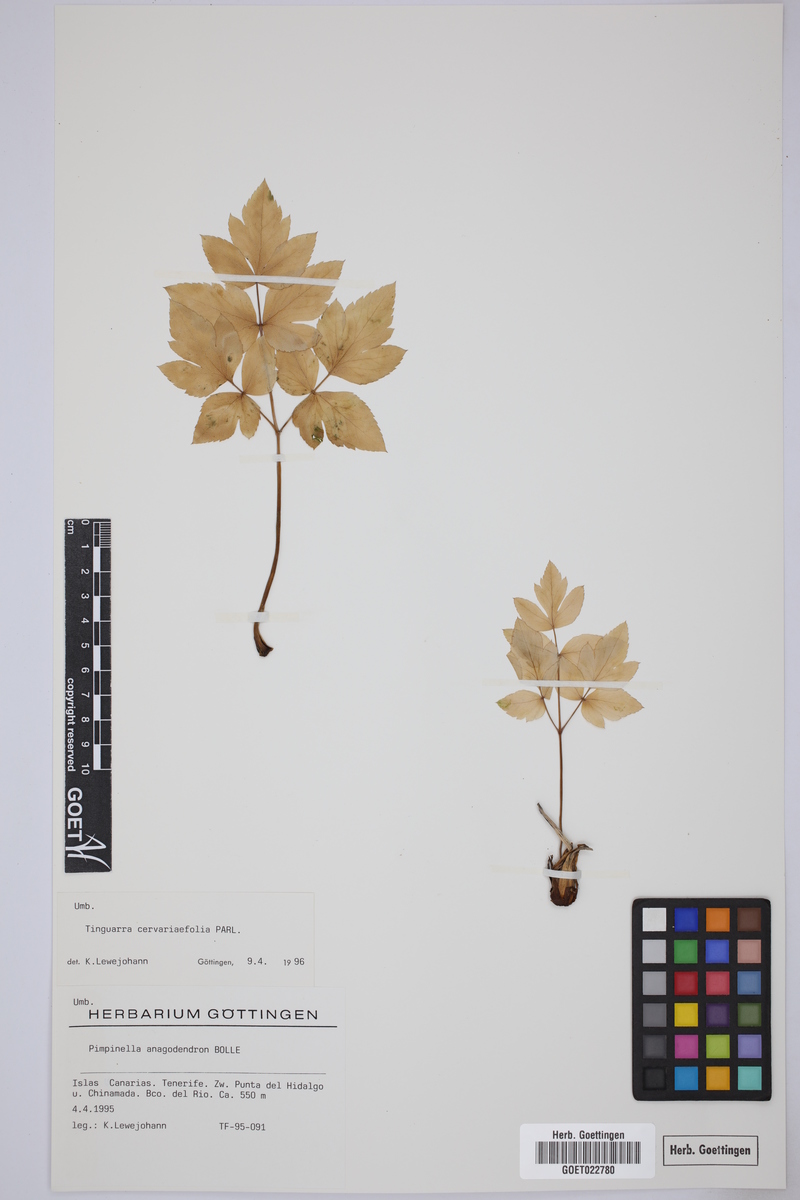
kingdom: Plantae
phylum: Tracheophyta
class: Magnoliopsida
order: Apiales
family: Apiaceae
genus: Athamanta
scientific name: Athamanta cervariifolia
